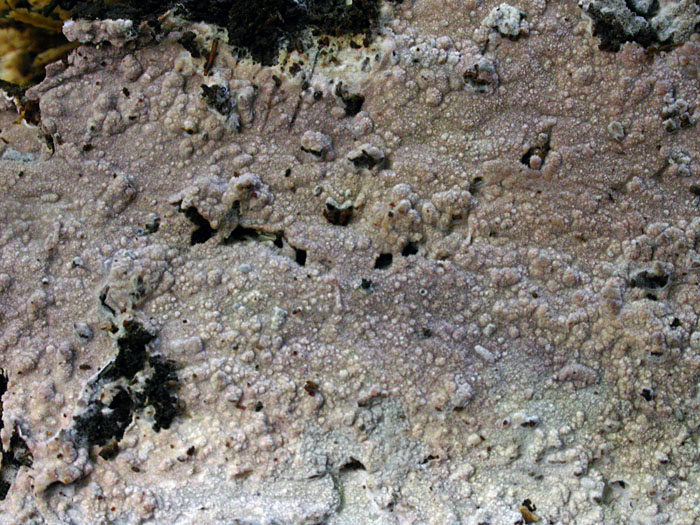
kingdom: Fungi
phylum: Basidiomycota
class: Agaricomycetes
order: Polyporales
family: Hyphodermataceae
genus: Hyphoderma
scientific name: Hyphoderma nudicephalum
